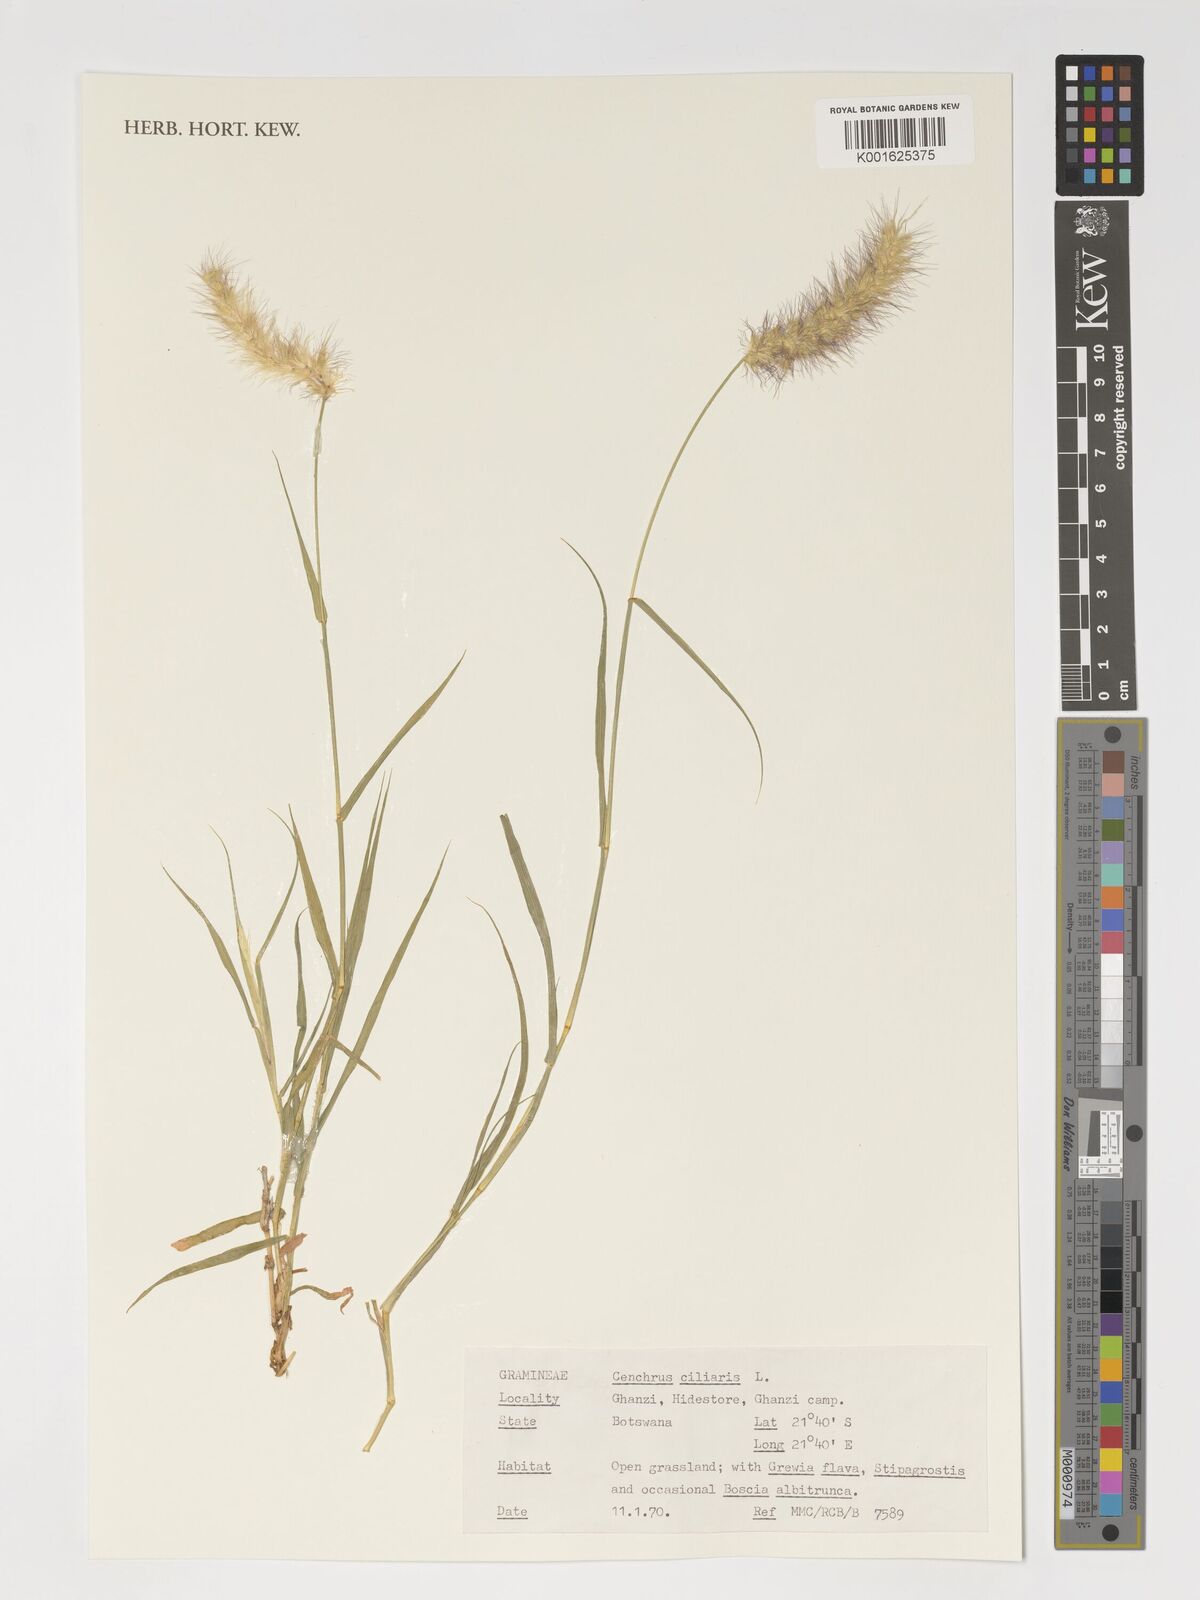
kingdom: Plantae
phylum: Tracheophyta
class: Liliopsida
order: Poales
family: Poaceae
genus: Cenchrus
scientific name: Cenchrus ciliaris
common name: Buffelgrass
